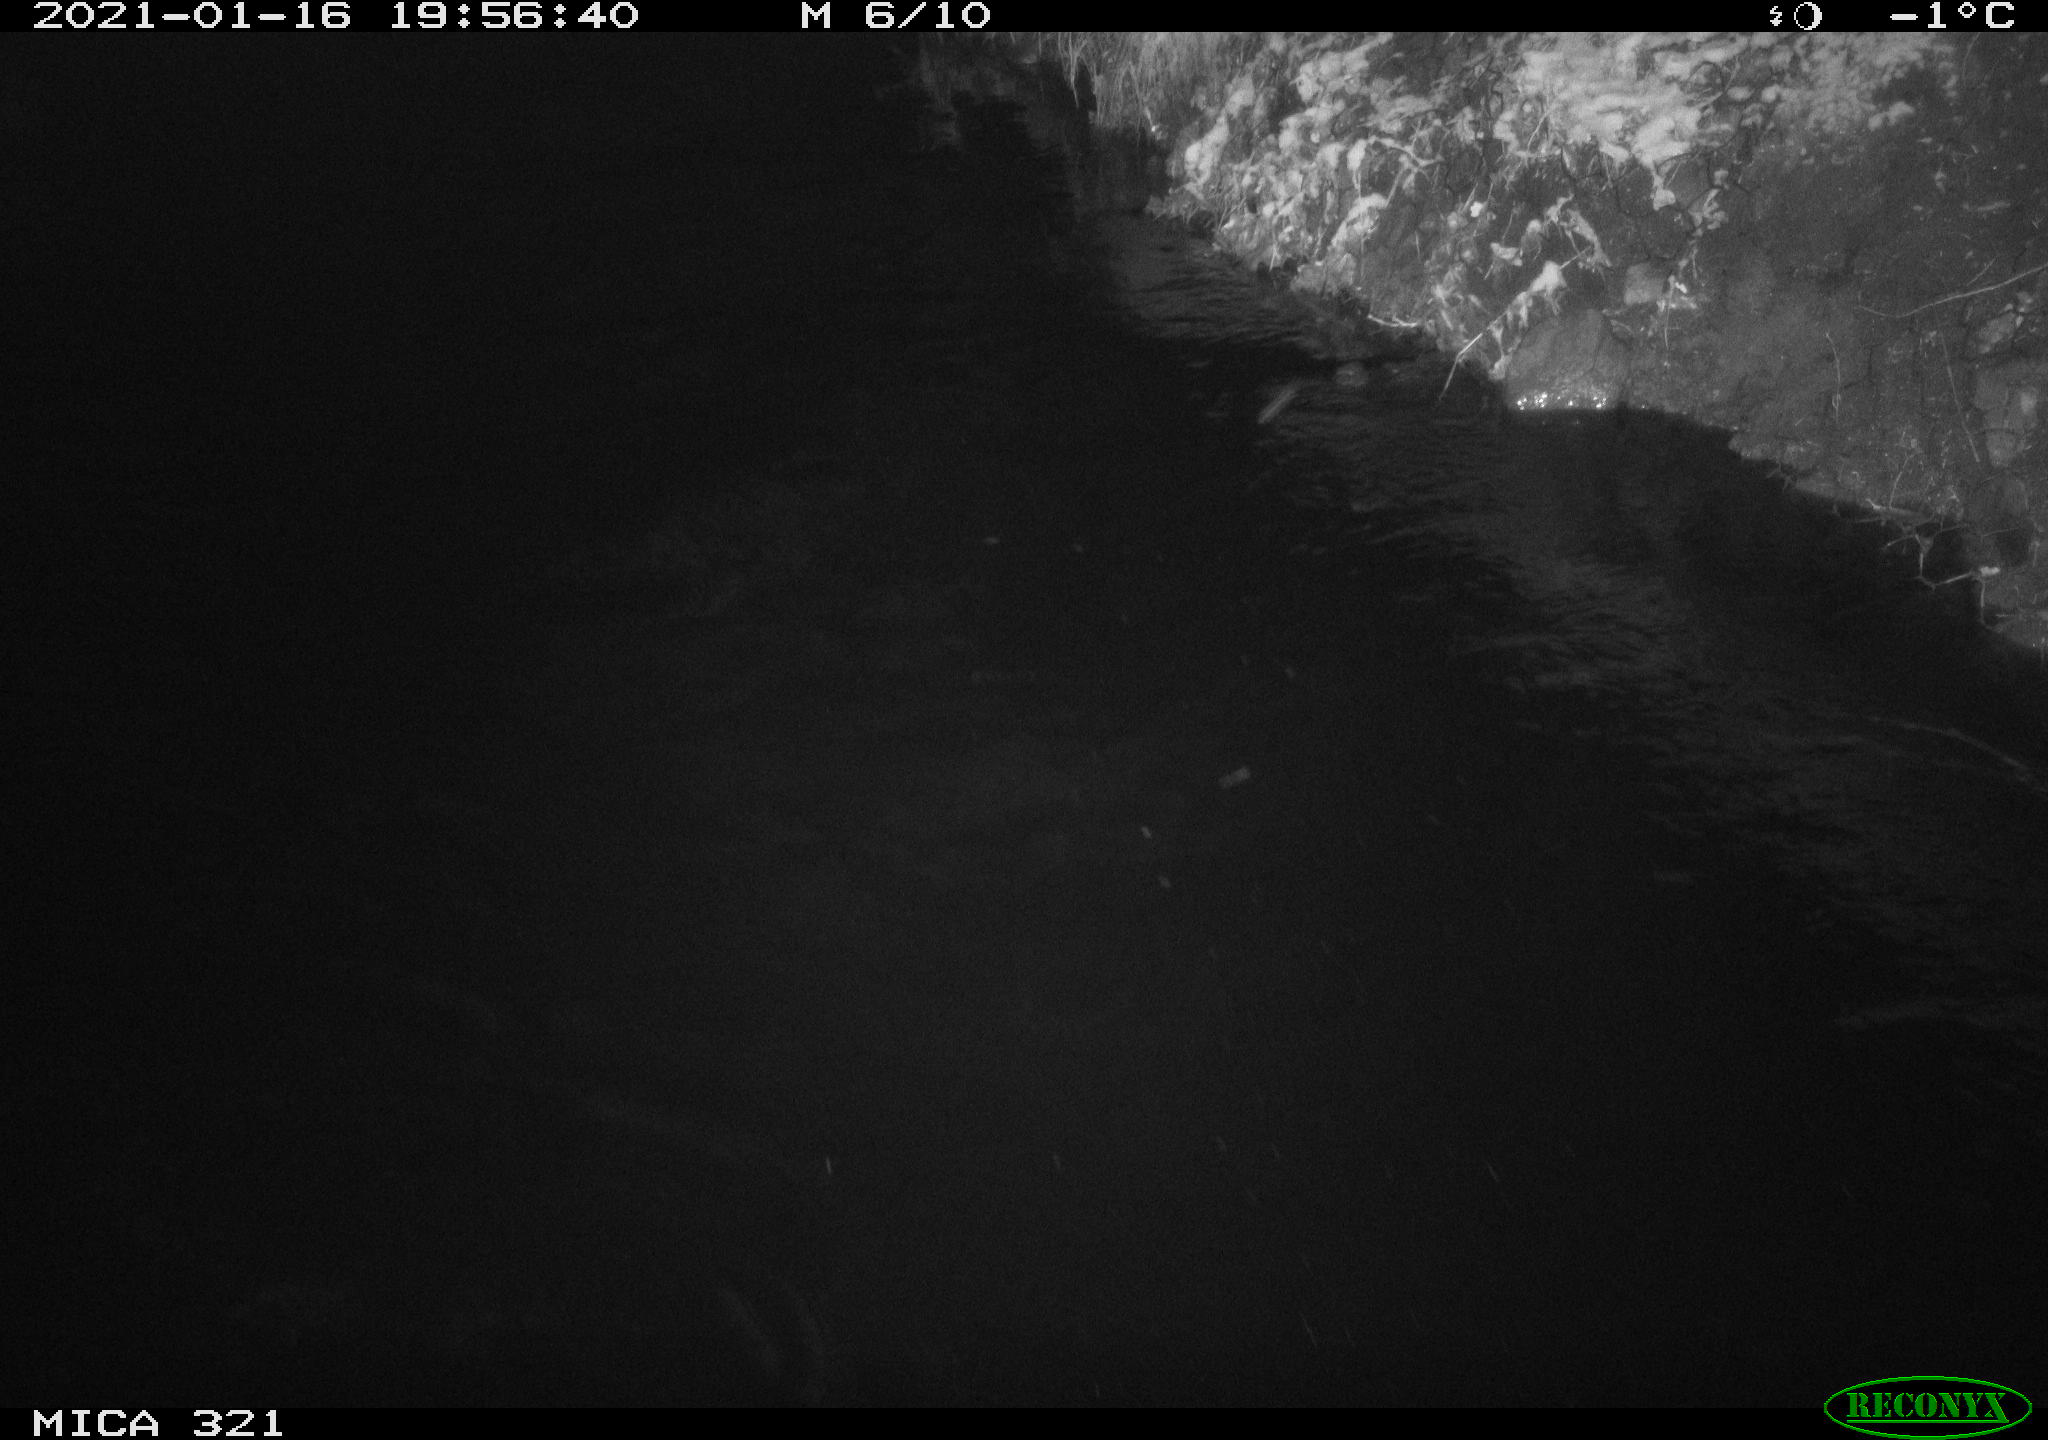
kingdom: Animalia
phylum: Chordata
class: Mammalia
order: Rodentia
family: Muridae
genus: Rattus
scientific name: Rattus norvegicus
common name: Brown rat
